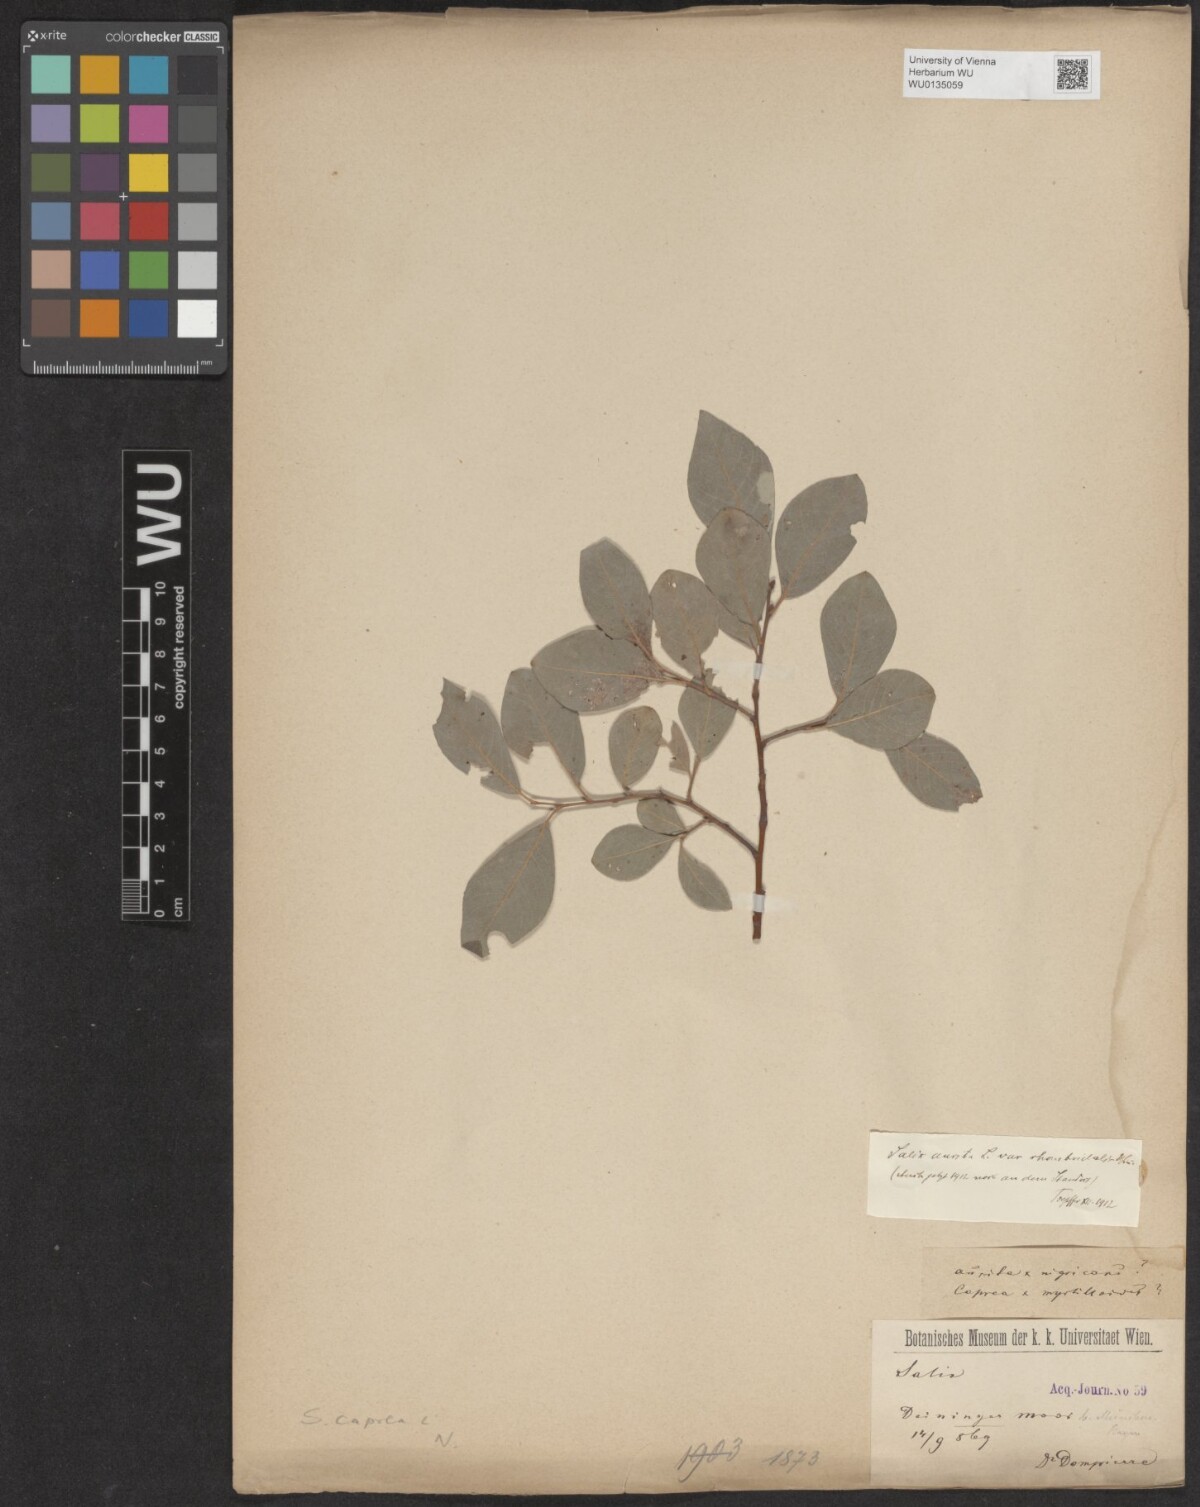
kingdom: Plantae
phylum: Tracheophyta
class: Magnoliopsida
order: Malpighiales
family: Salicaceae
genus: Salix
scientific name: Salix caprea
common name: Goat willow
